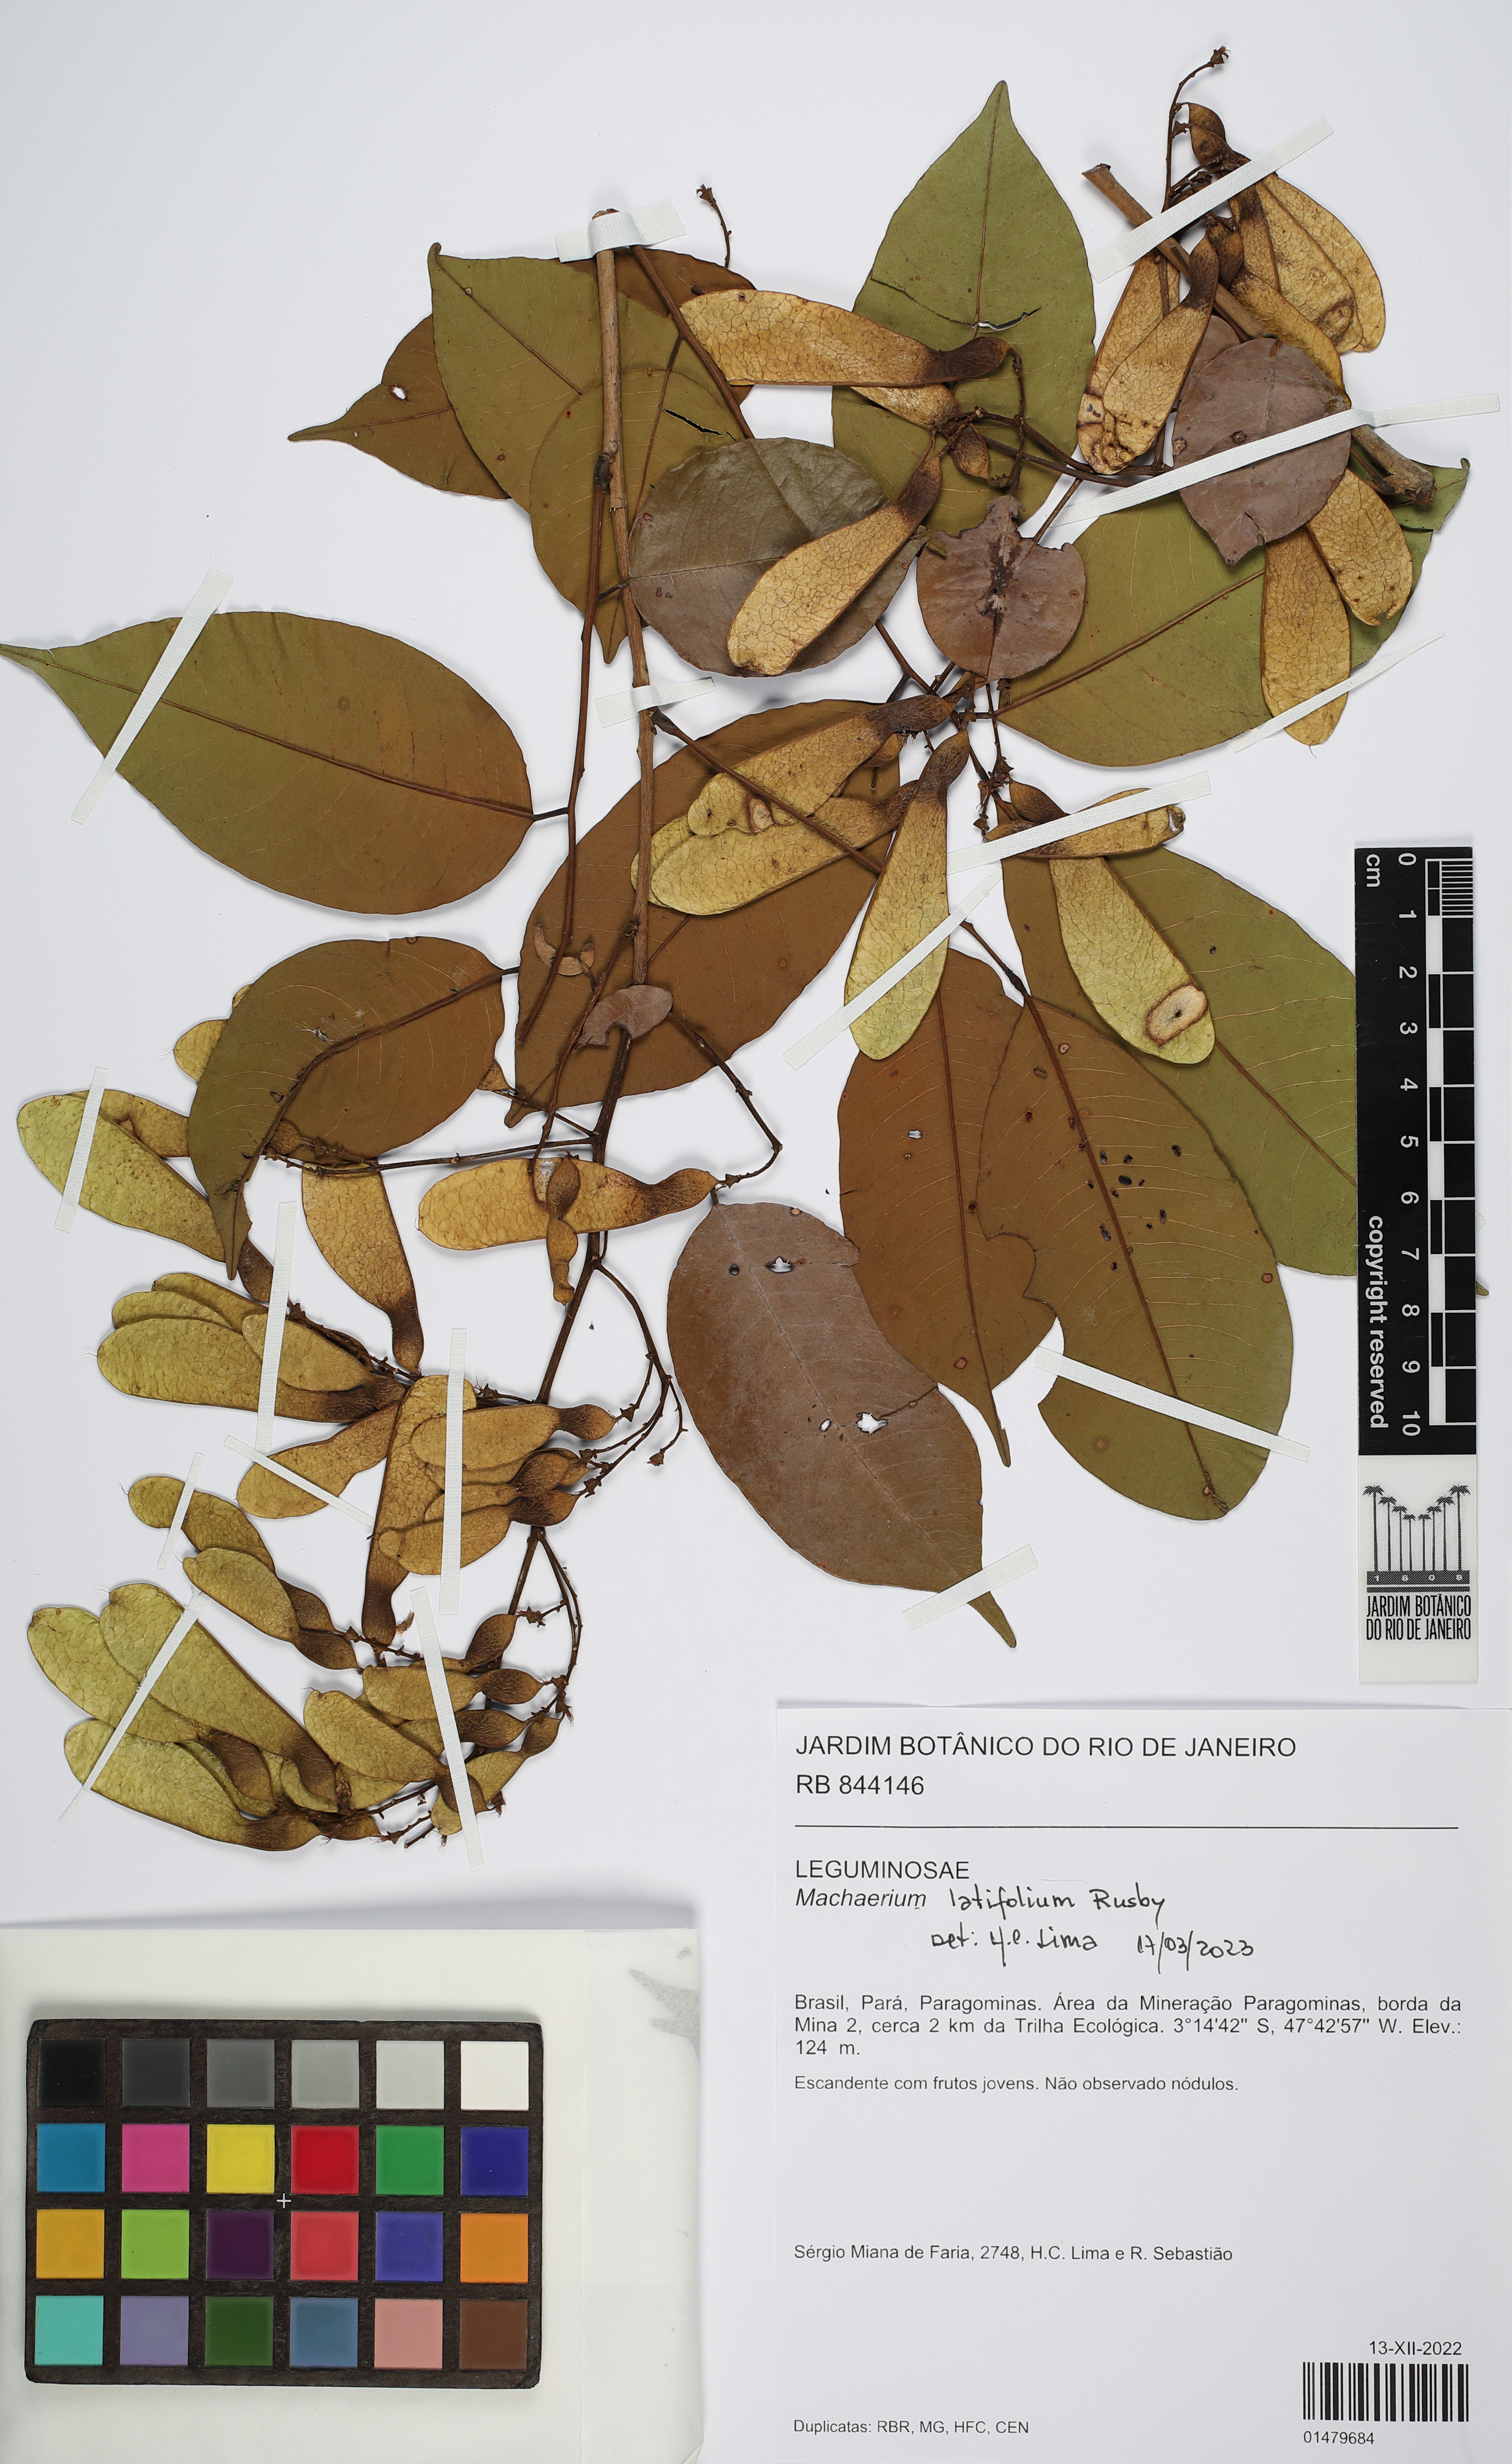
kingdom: Plantae
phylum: Tracheophyta
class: Magnoliopsida
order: Fabales
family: Fabaceae
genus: Machaerium
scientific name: Machaerium latifolium
